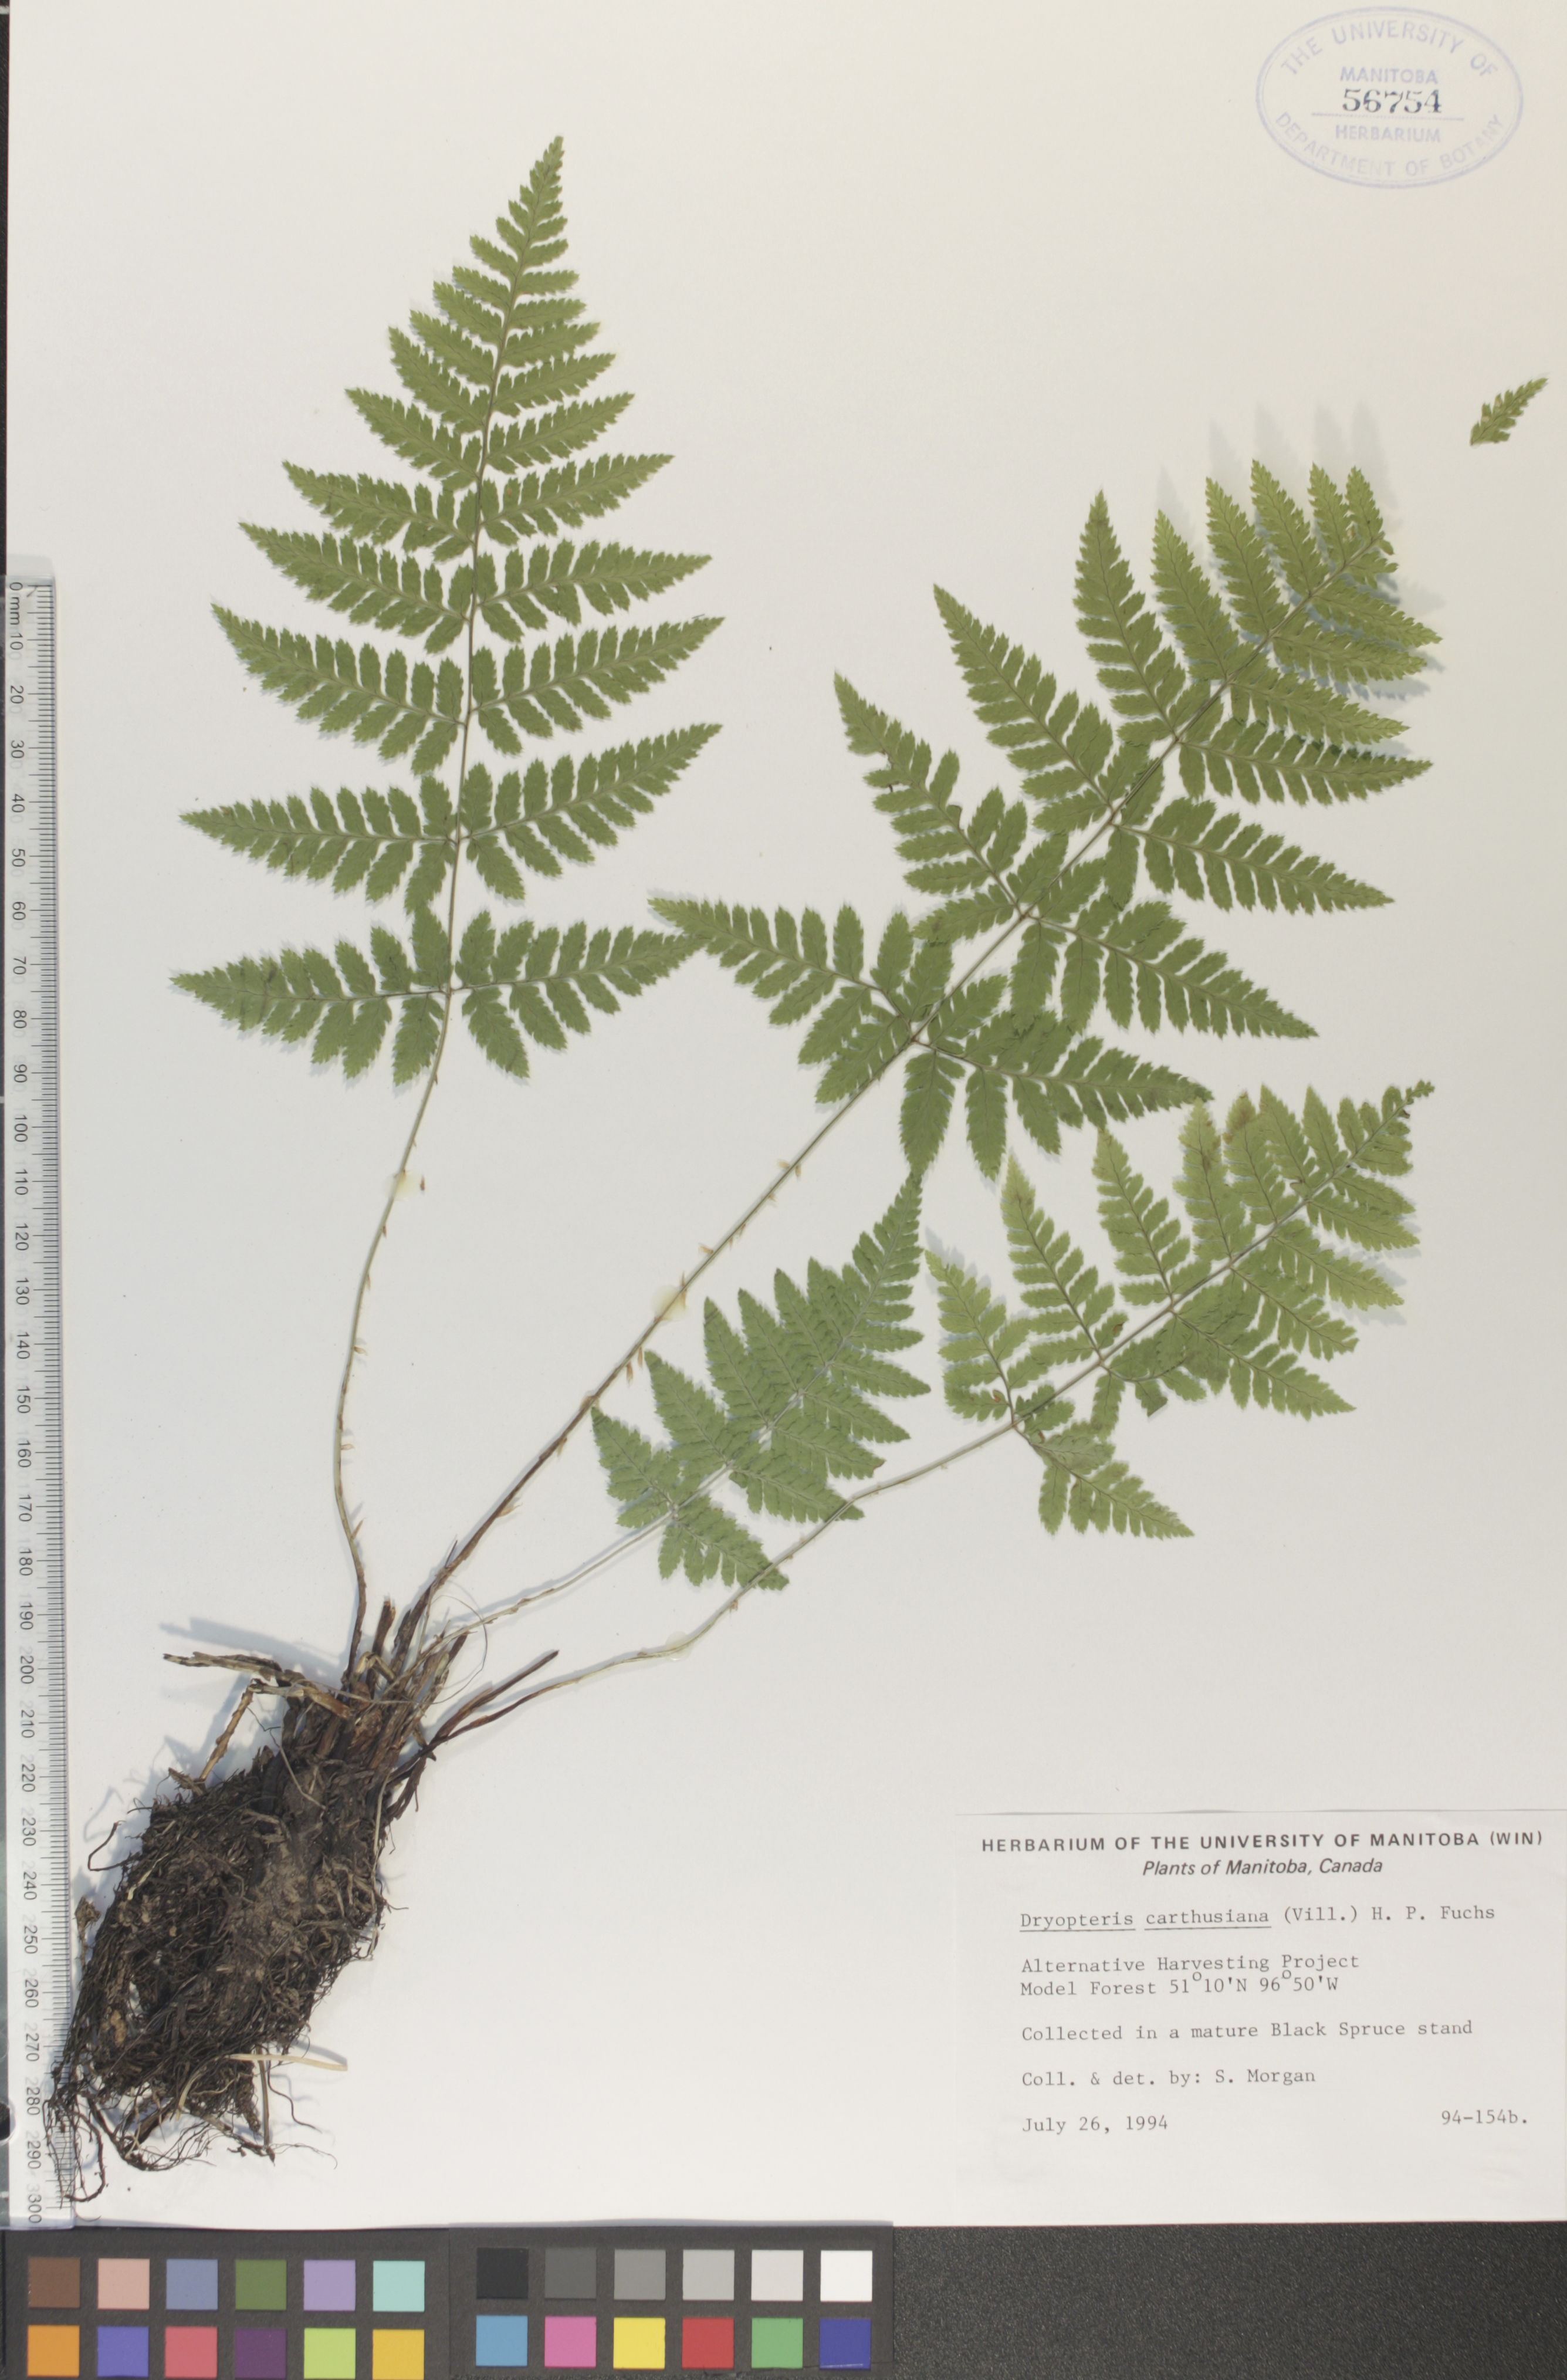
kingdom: Plantae
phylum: Tracheophyta
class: Polypodiopsida
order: Polypodiales
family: Dryopteridaceae
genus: Dryopteris
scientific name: Dryopteris carthusiana
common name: Narrow buckler-fern
